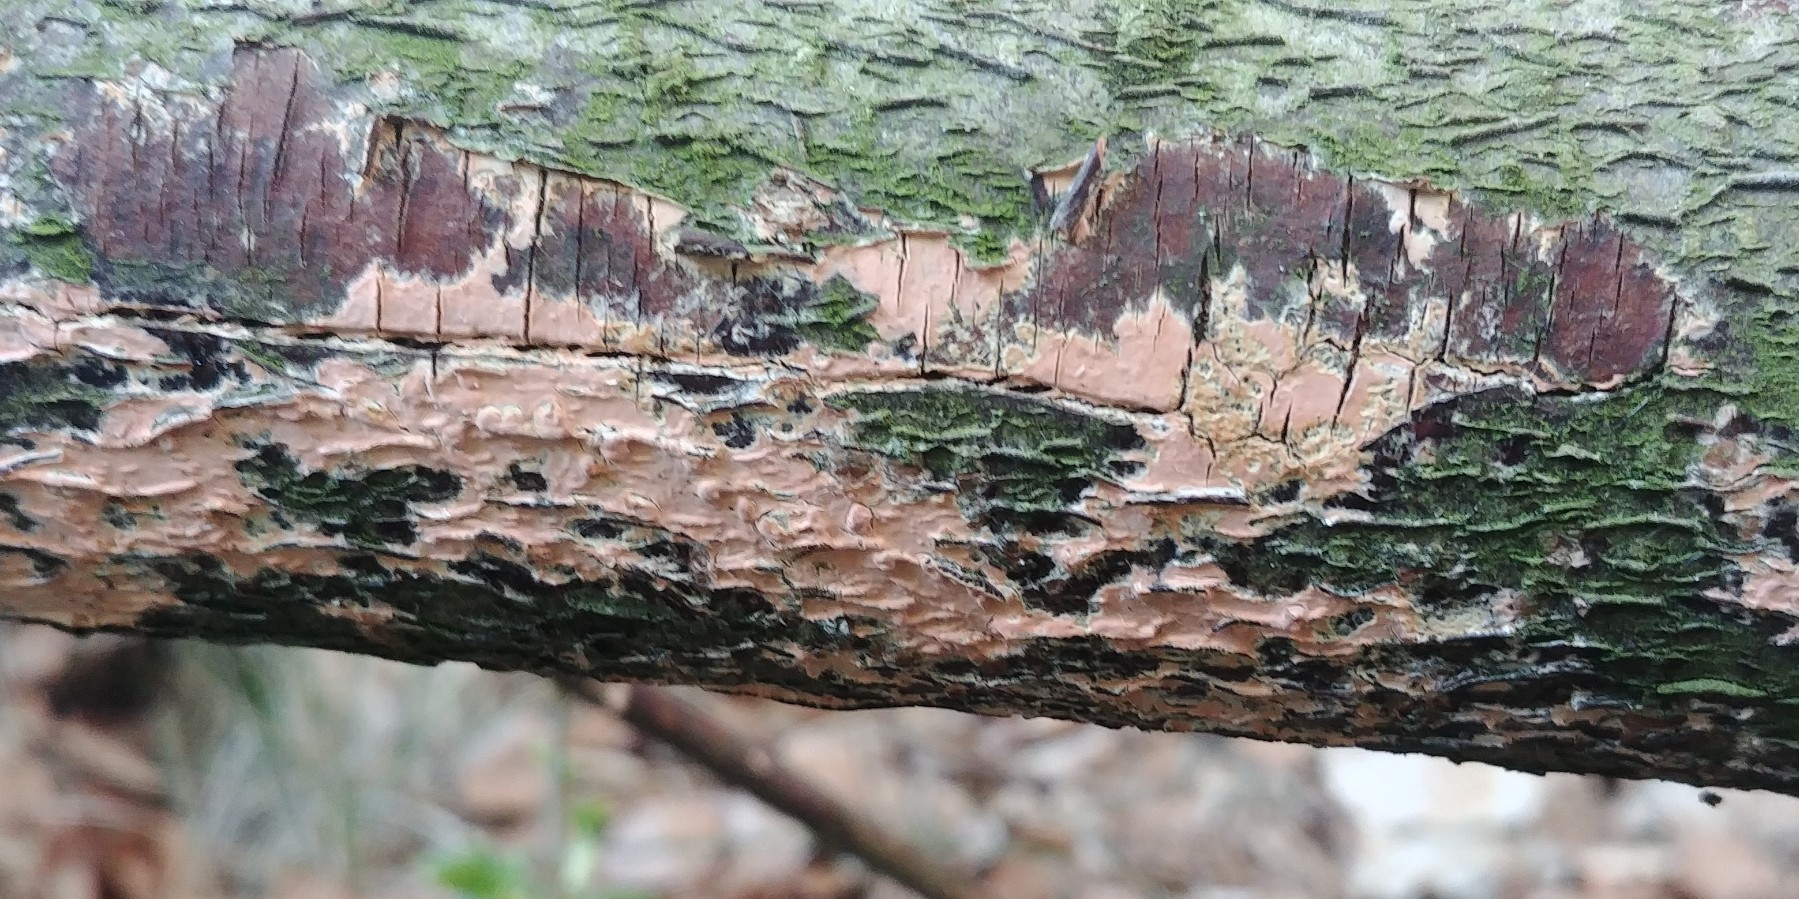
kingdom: Fungi
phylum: Basidiomycota
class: Agaricomycetes
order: Russulales
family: Peniophoraceae
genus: Peniophora
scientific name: Peniophora incarnata
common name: laksefarvet voksskind
